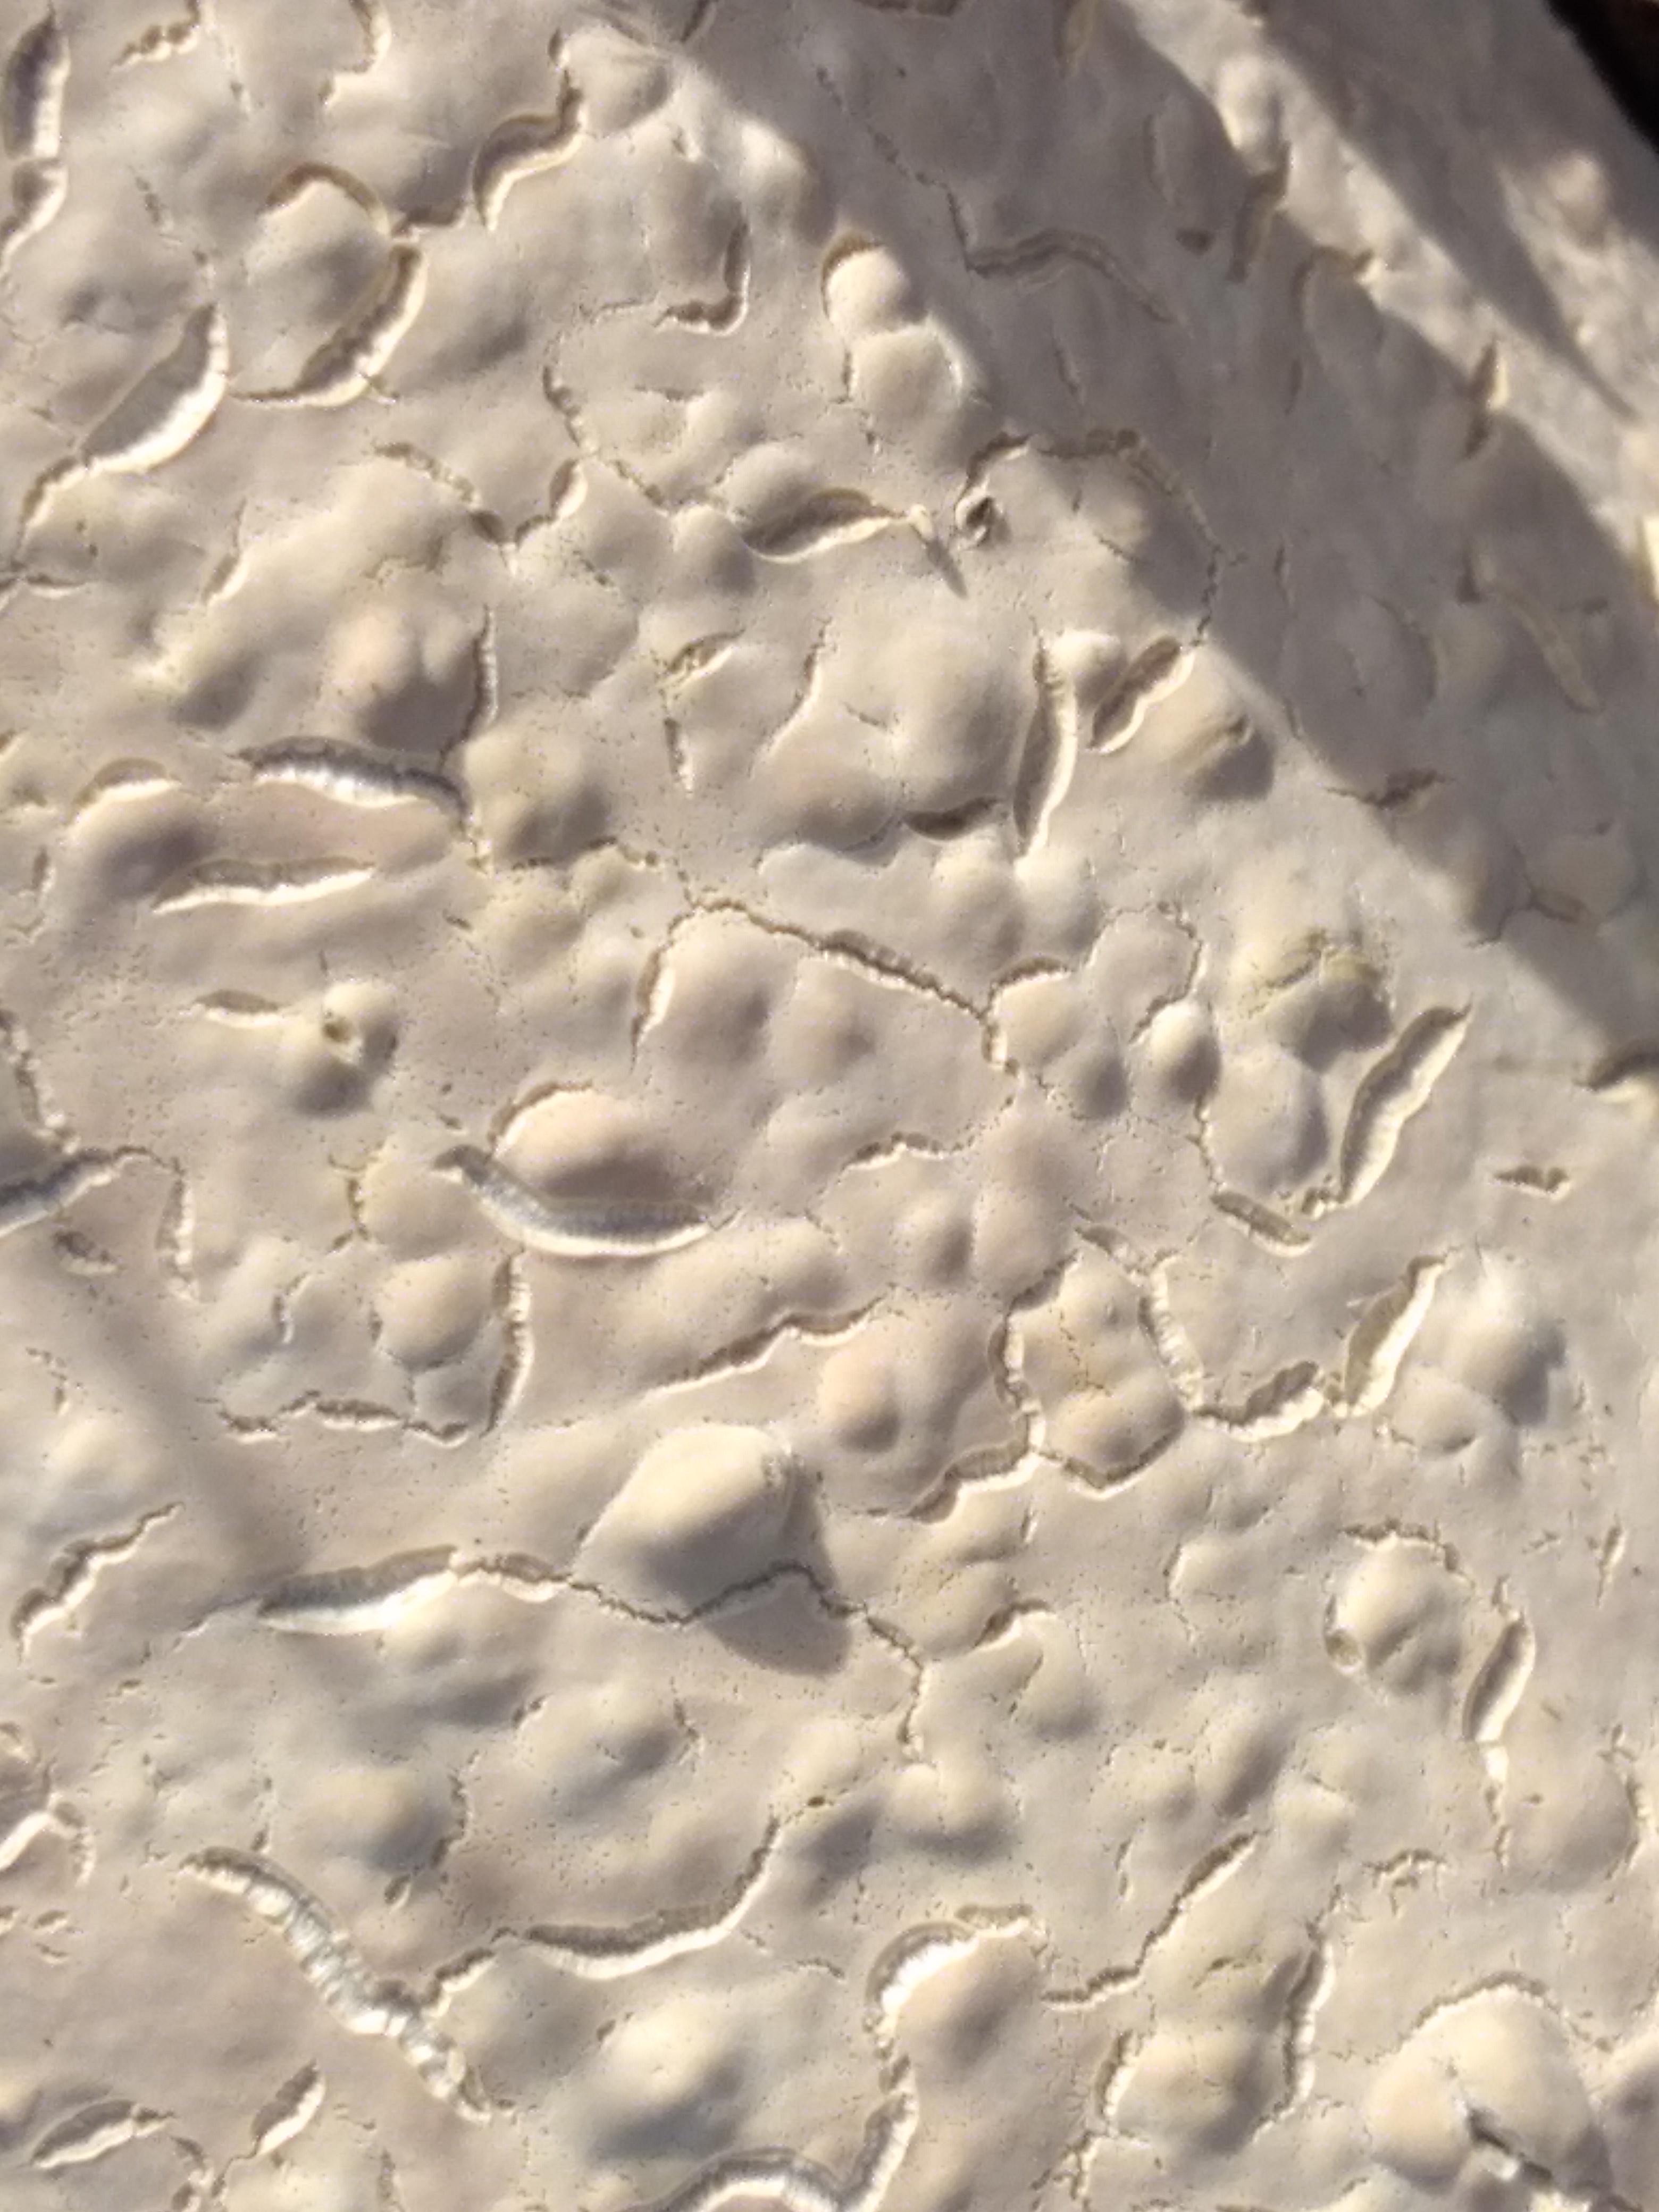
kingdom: Fungi
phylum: Basidiomycota
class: Agaricomycetes
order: Agaricales
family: Physalacriaceae
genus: Cylindrobasidium
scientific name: Cylindrobasidium evolvens
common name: sprækkehinde
